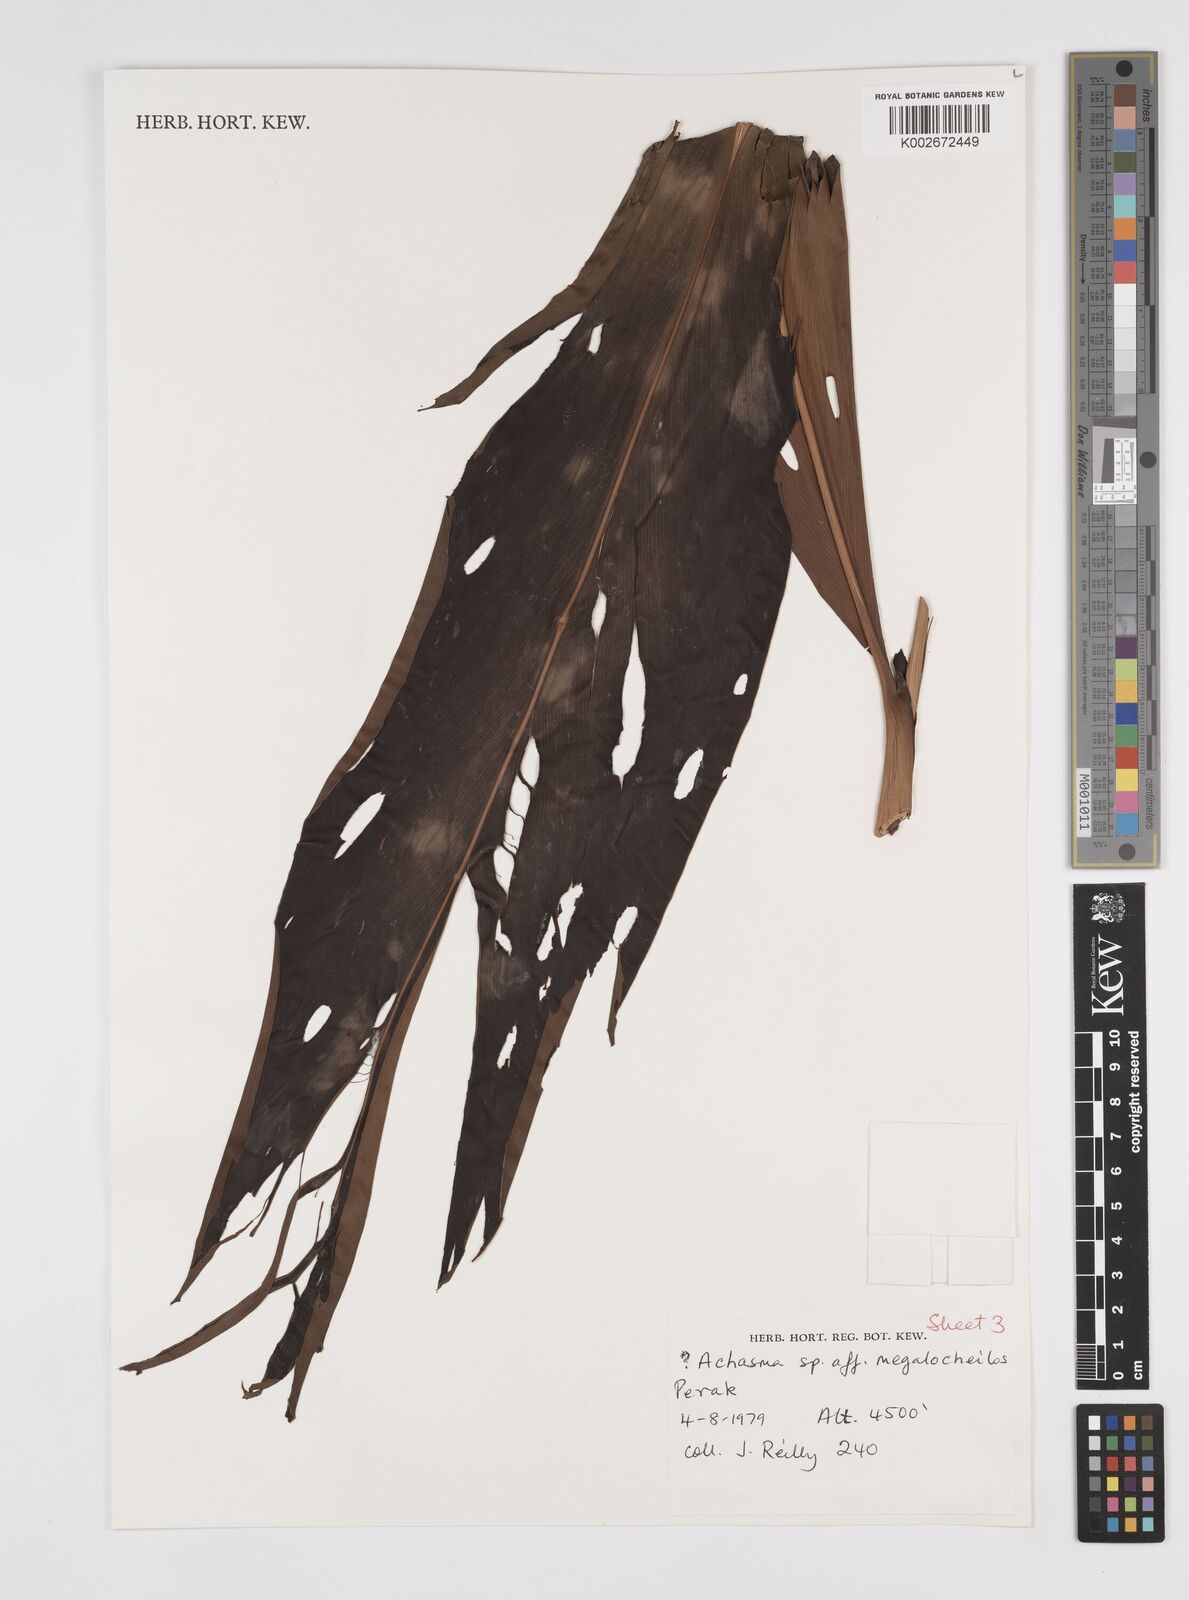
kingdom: Plantae
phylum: Tracheophyta
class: Liliopsida
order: Zingiberales
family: Zingiberaceae
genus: Etlingera
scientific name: Etlingera littoralis
